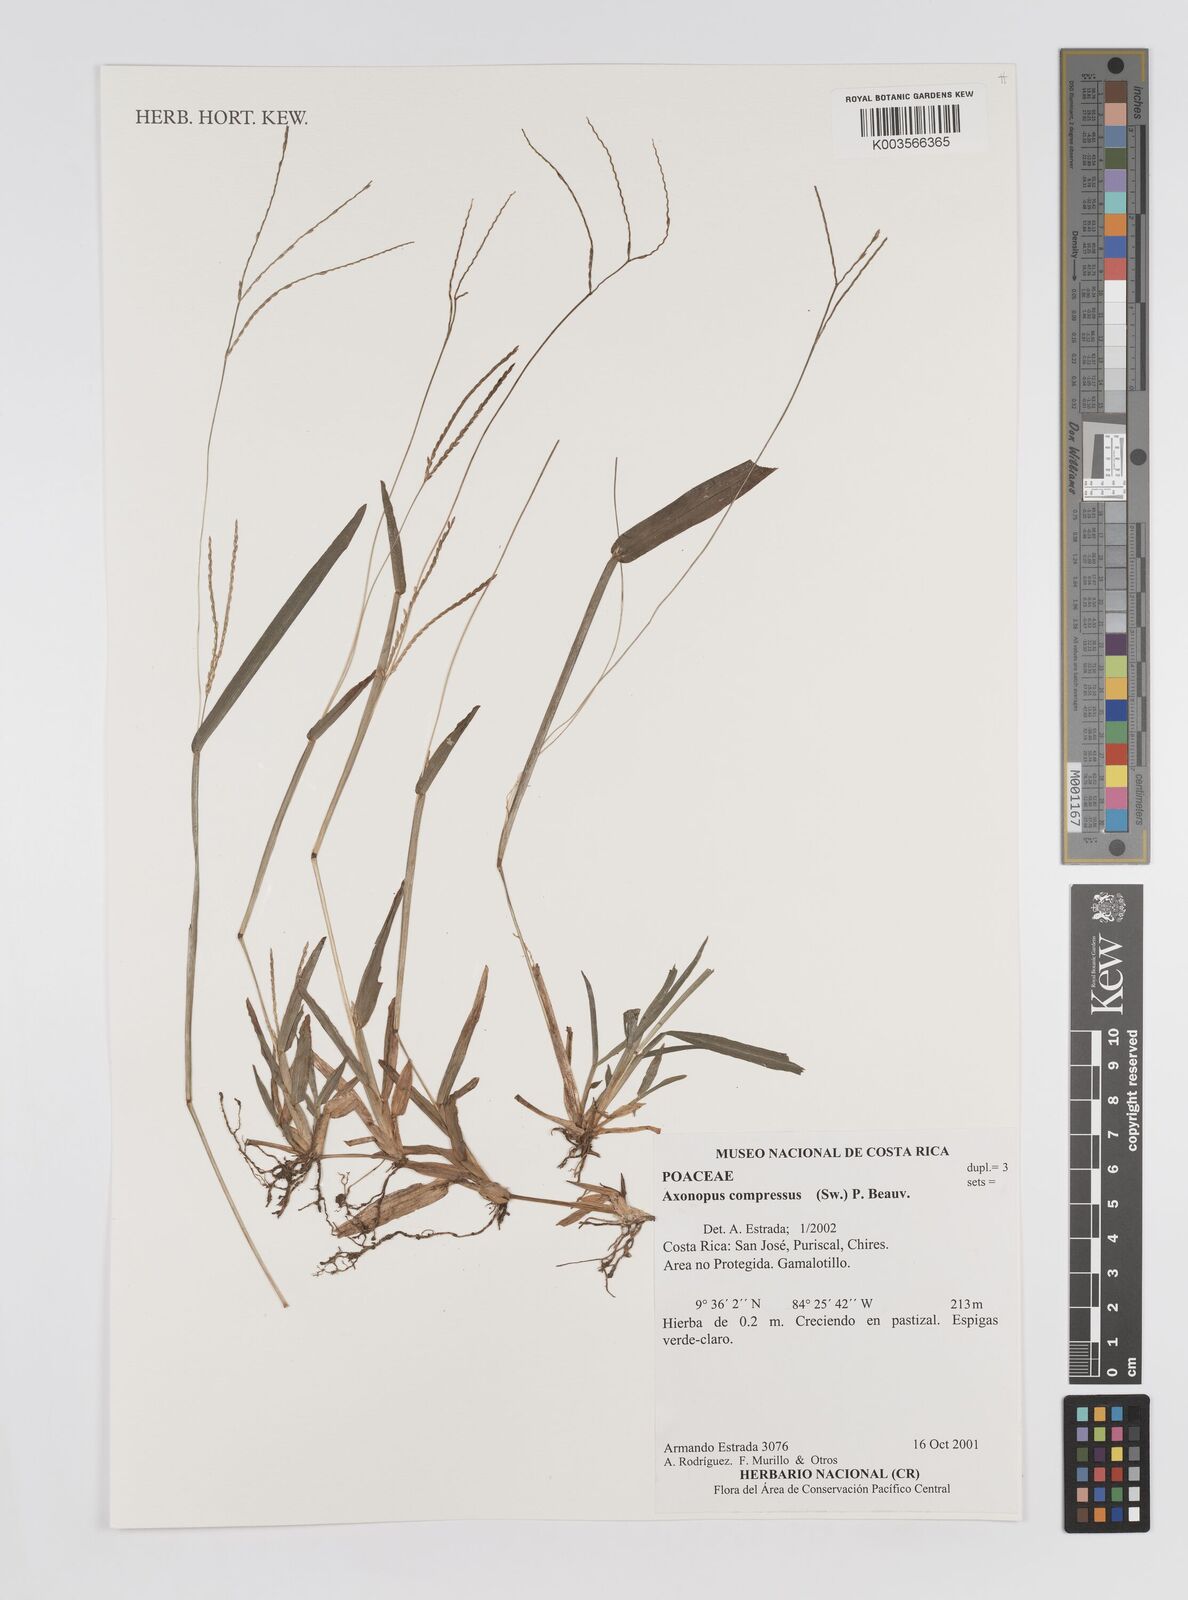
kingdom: Plantae
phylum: Tracheophyta
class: Liliopsida
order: Poales
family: Poaceae
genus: Axonopus
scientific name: Axonopus compressus
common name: American carpet grass
